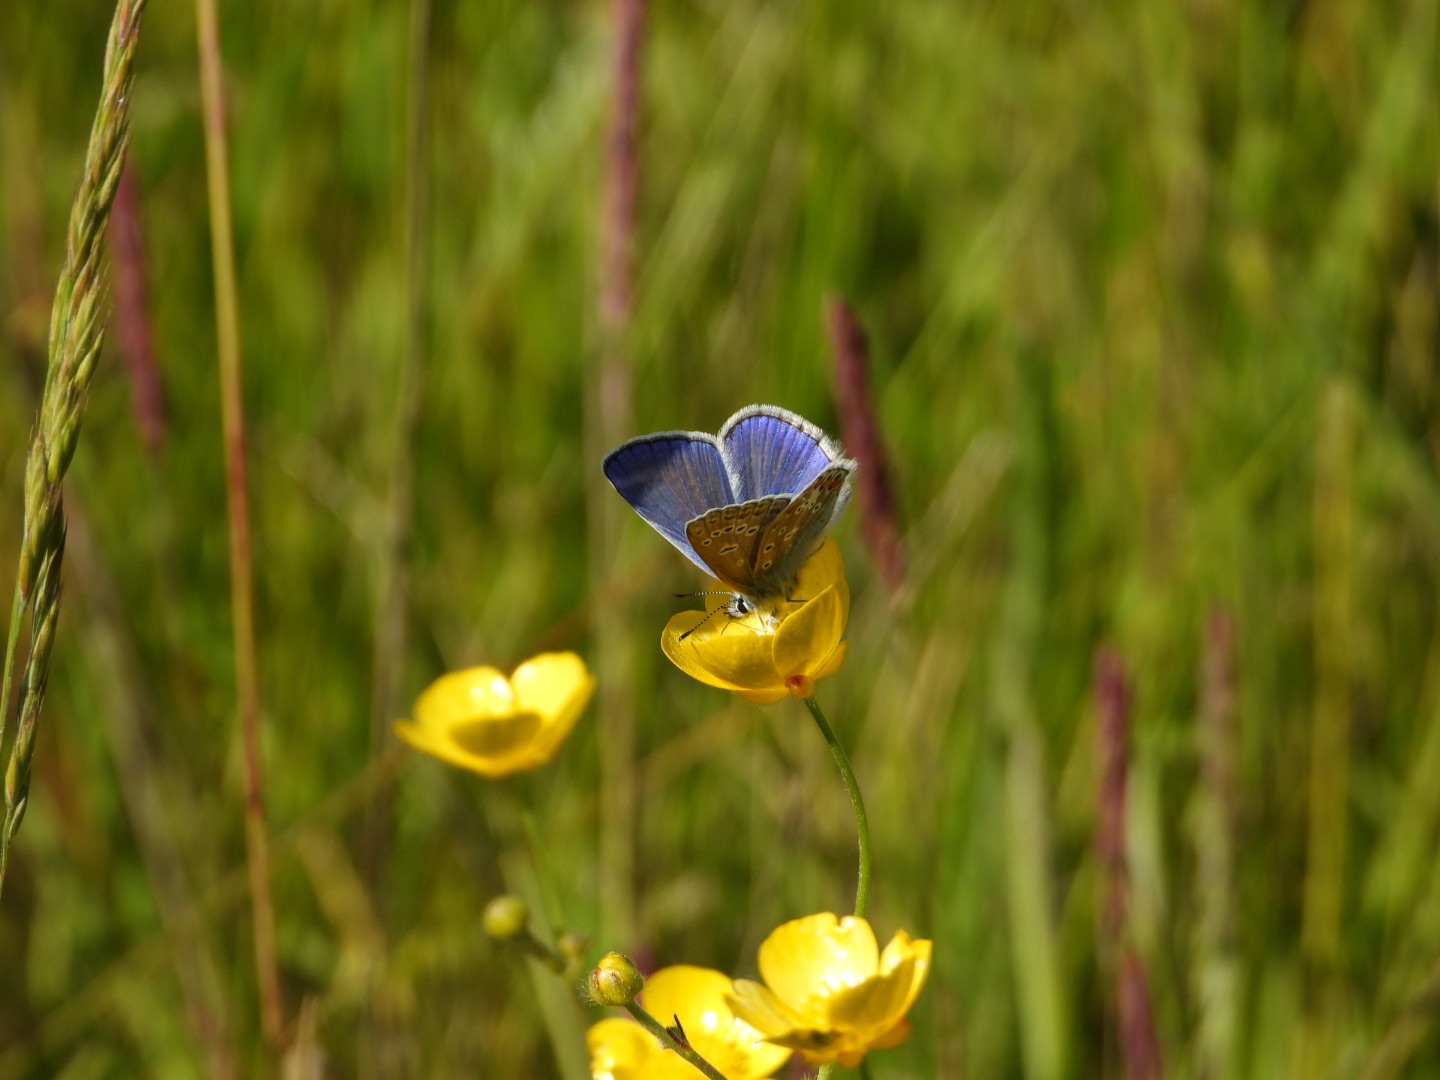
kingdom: Animalia
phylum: Arthropoda
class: Insecta
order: Lepidoptera
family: Lycaenidae
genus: Polyommatus
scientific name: Polyommatus icarus
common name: Almindelig blåfugl
